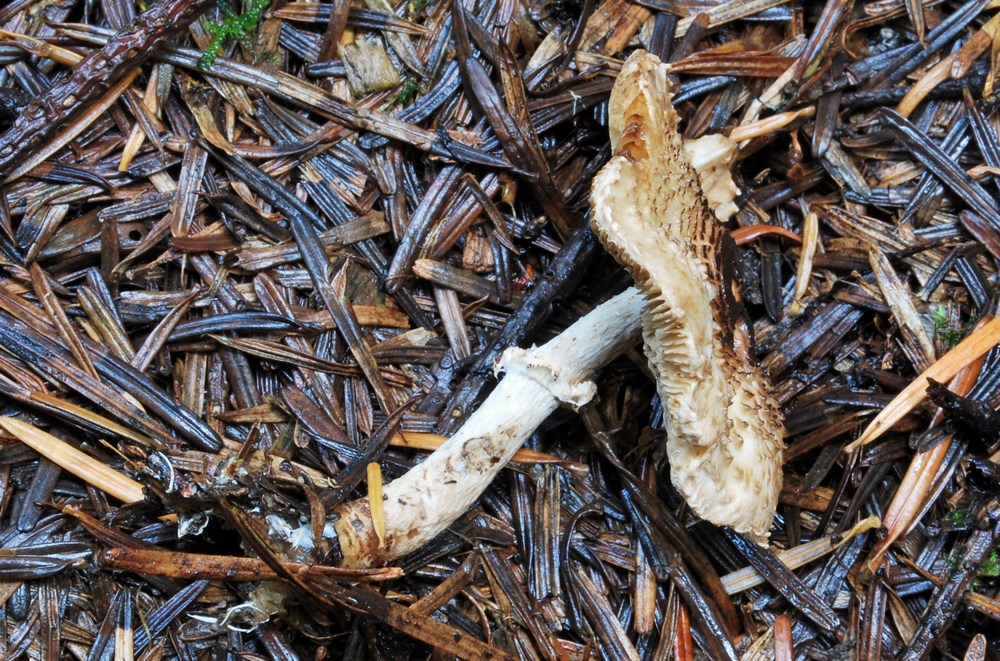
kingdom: Fungi
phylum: Basidiomycota
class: Agaricomycetes
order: Agaricales
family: Agaricaceae
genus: Lepiota
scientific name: Lepiota felina
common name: sortskællet parasolhat
